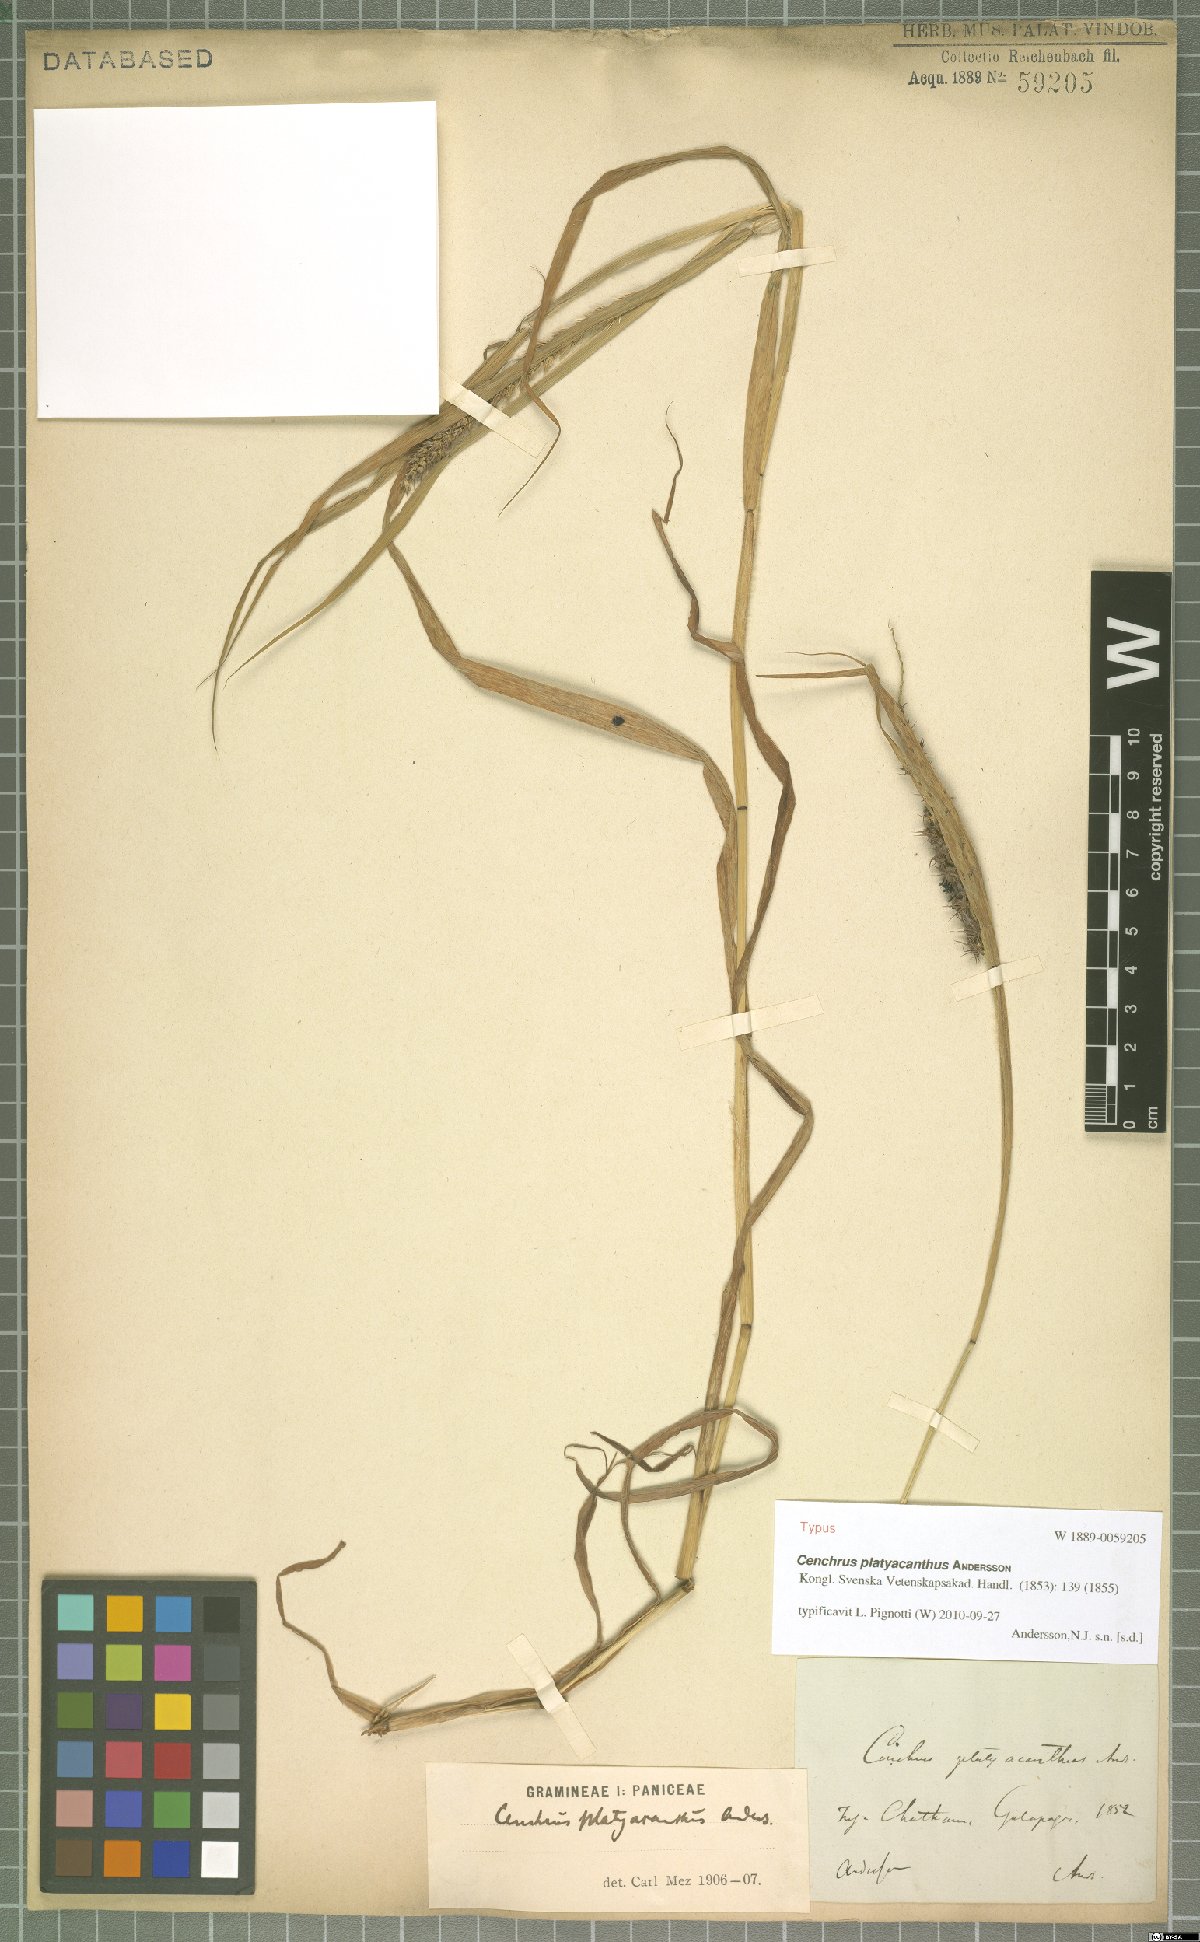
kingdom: Plantae
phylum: Tracheophyta
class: Liliopsida
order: Poales
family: Poaceae
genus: Cenchrus
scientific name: Cenchrus platyacanthus
